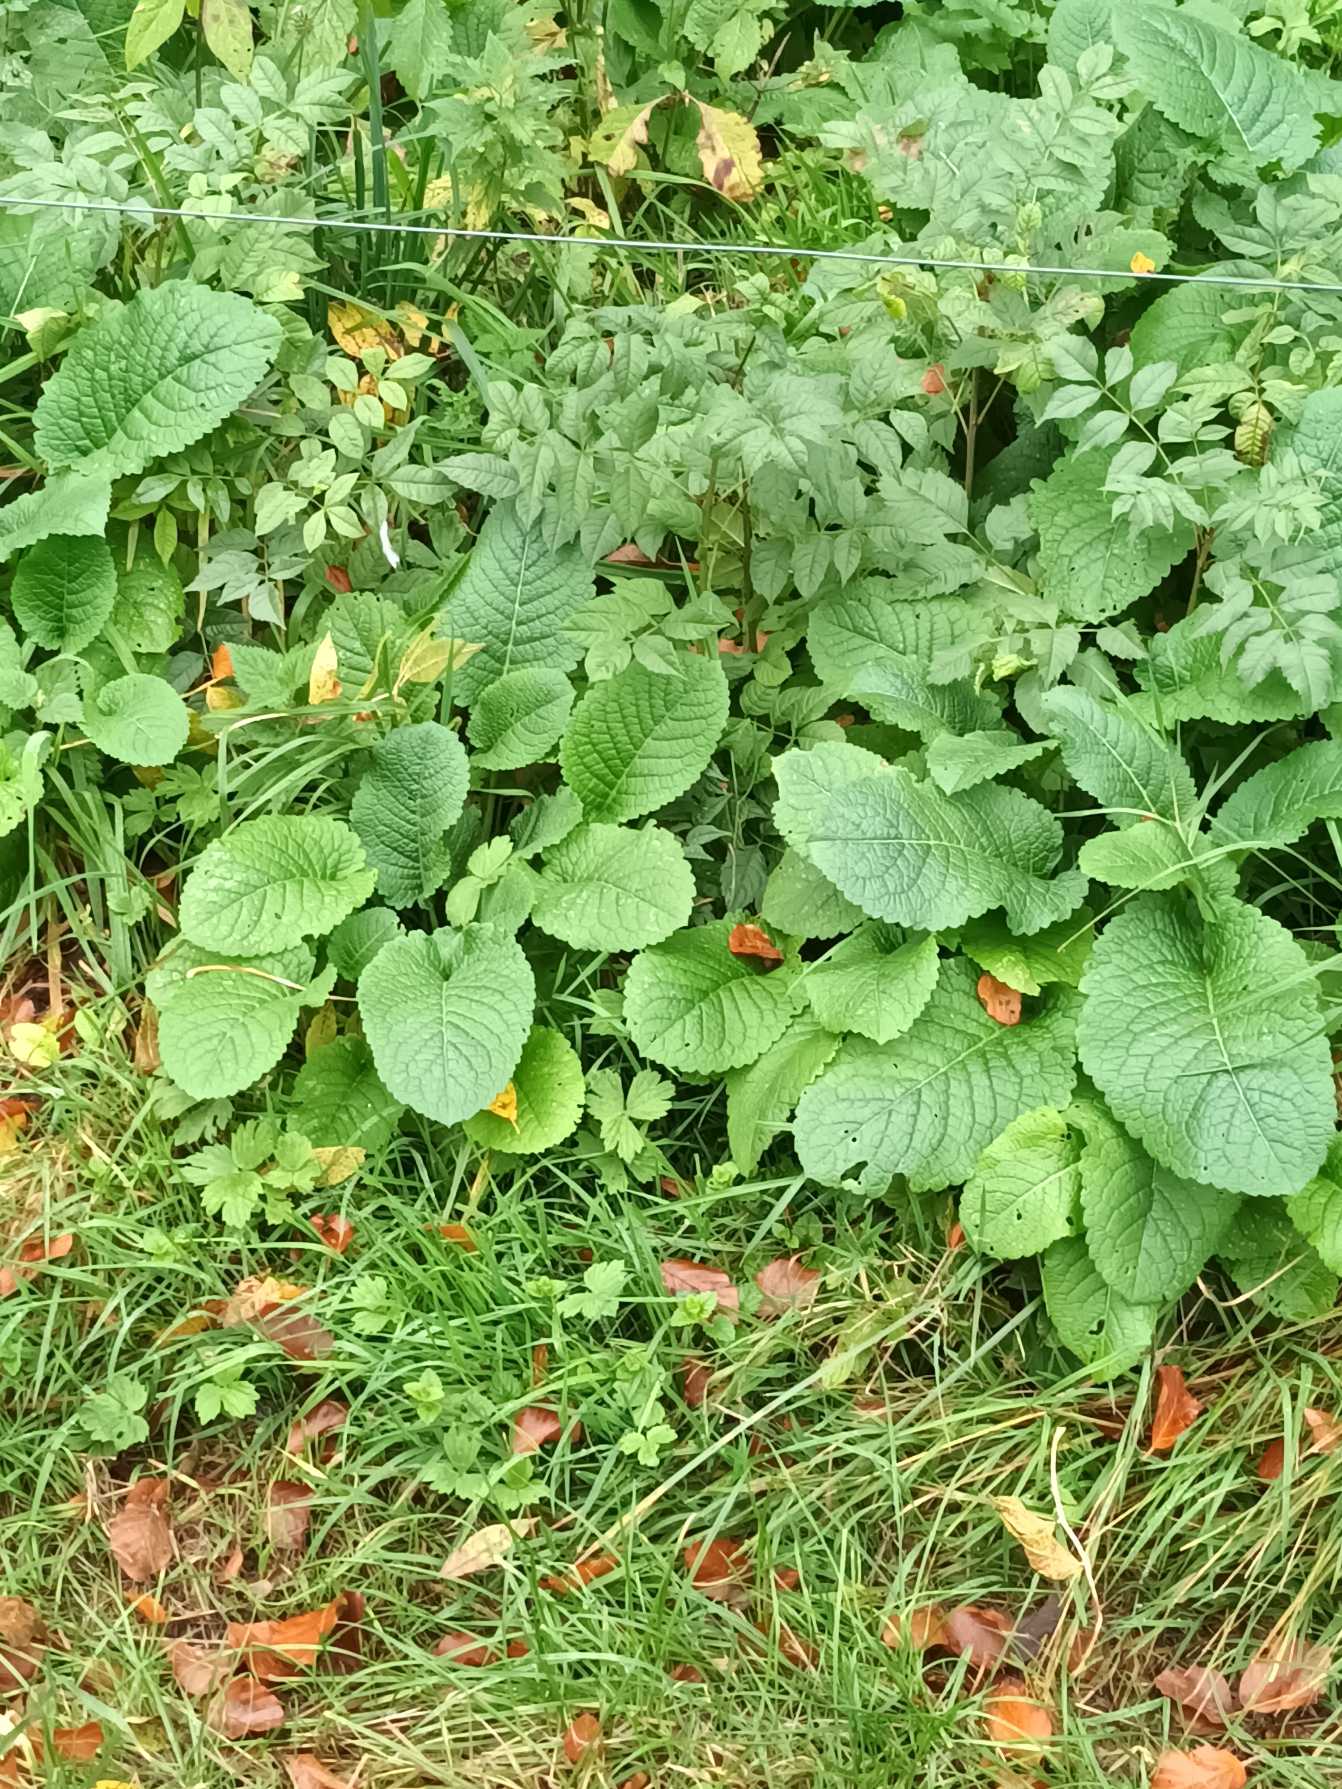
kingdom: Plantae
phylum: Tracheophyta
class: Magnoliopsida
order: Dipsacales
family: Caprifoliaceae
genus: Dipsacus
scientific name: Dipsacus strigosus
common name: Pindsvin-kartebolle
